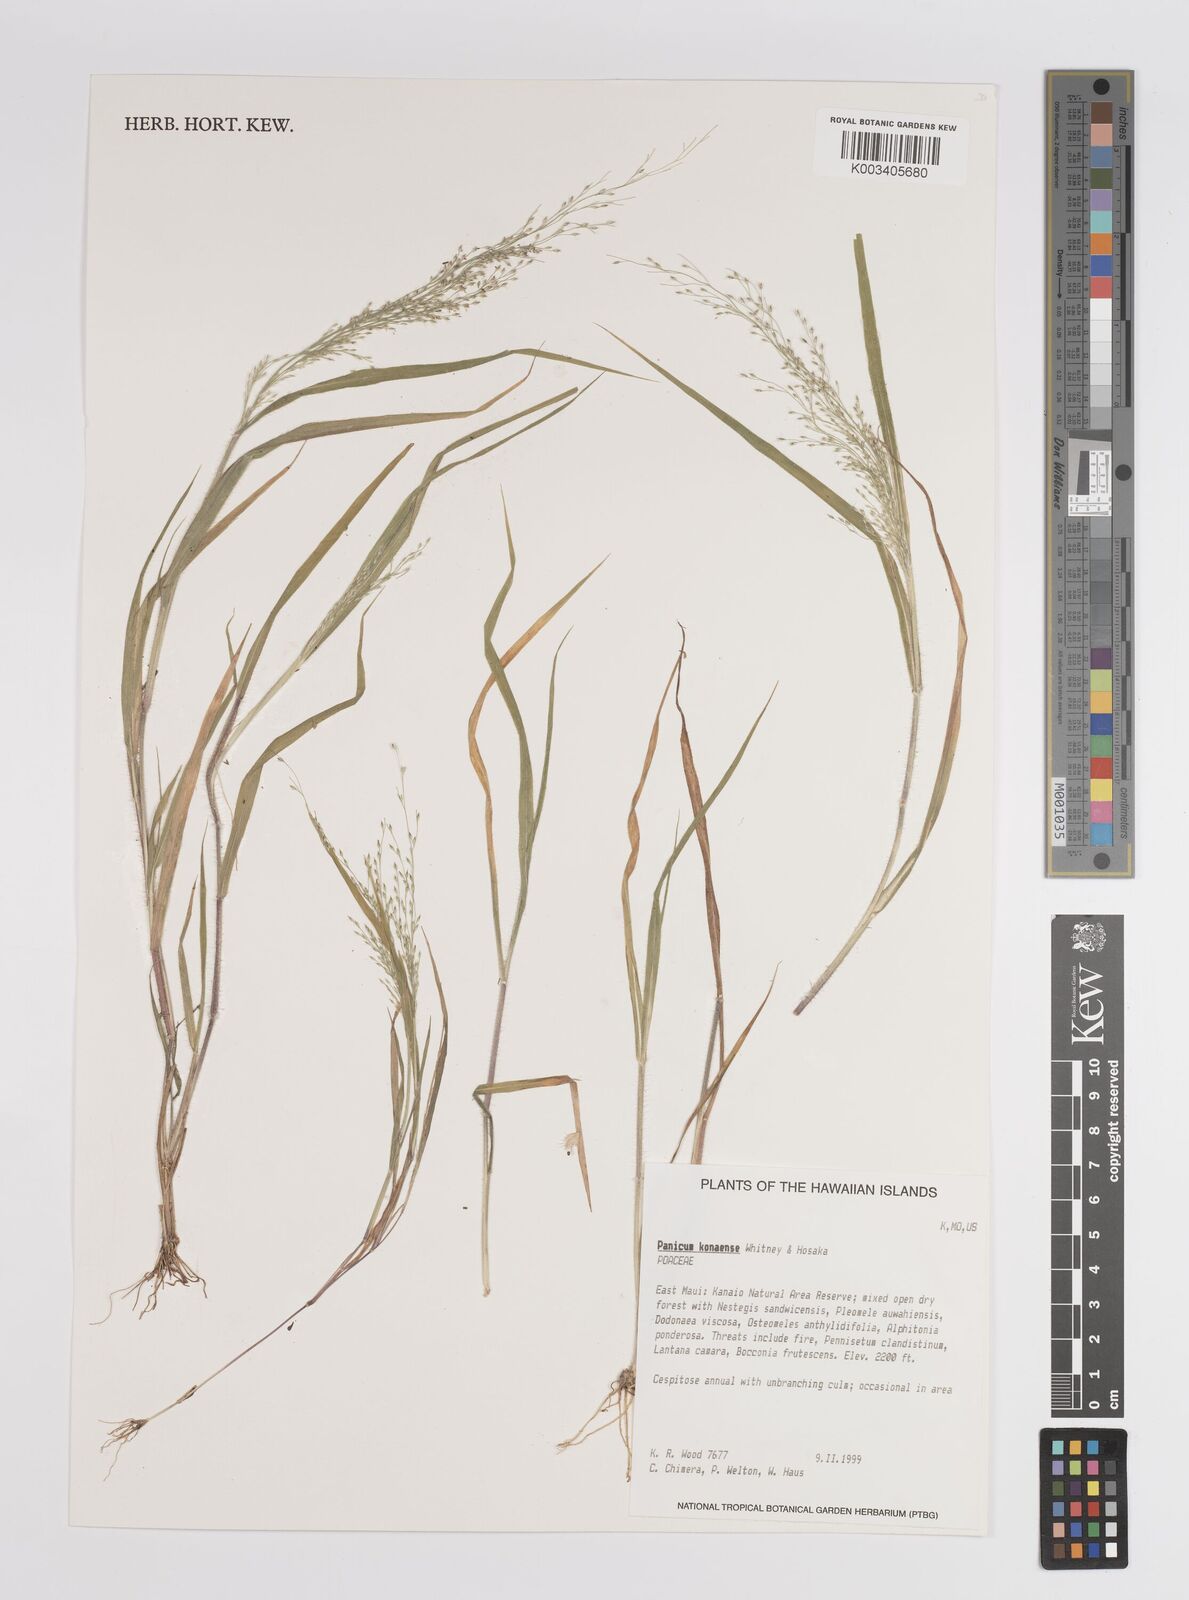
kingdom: Plantae
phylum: Tracheophyta
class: Liliopsida
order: Poales
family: Poaceae
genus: Panicum
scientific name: Panicum konaense
